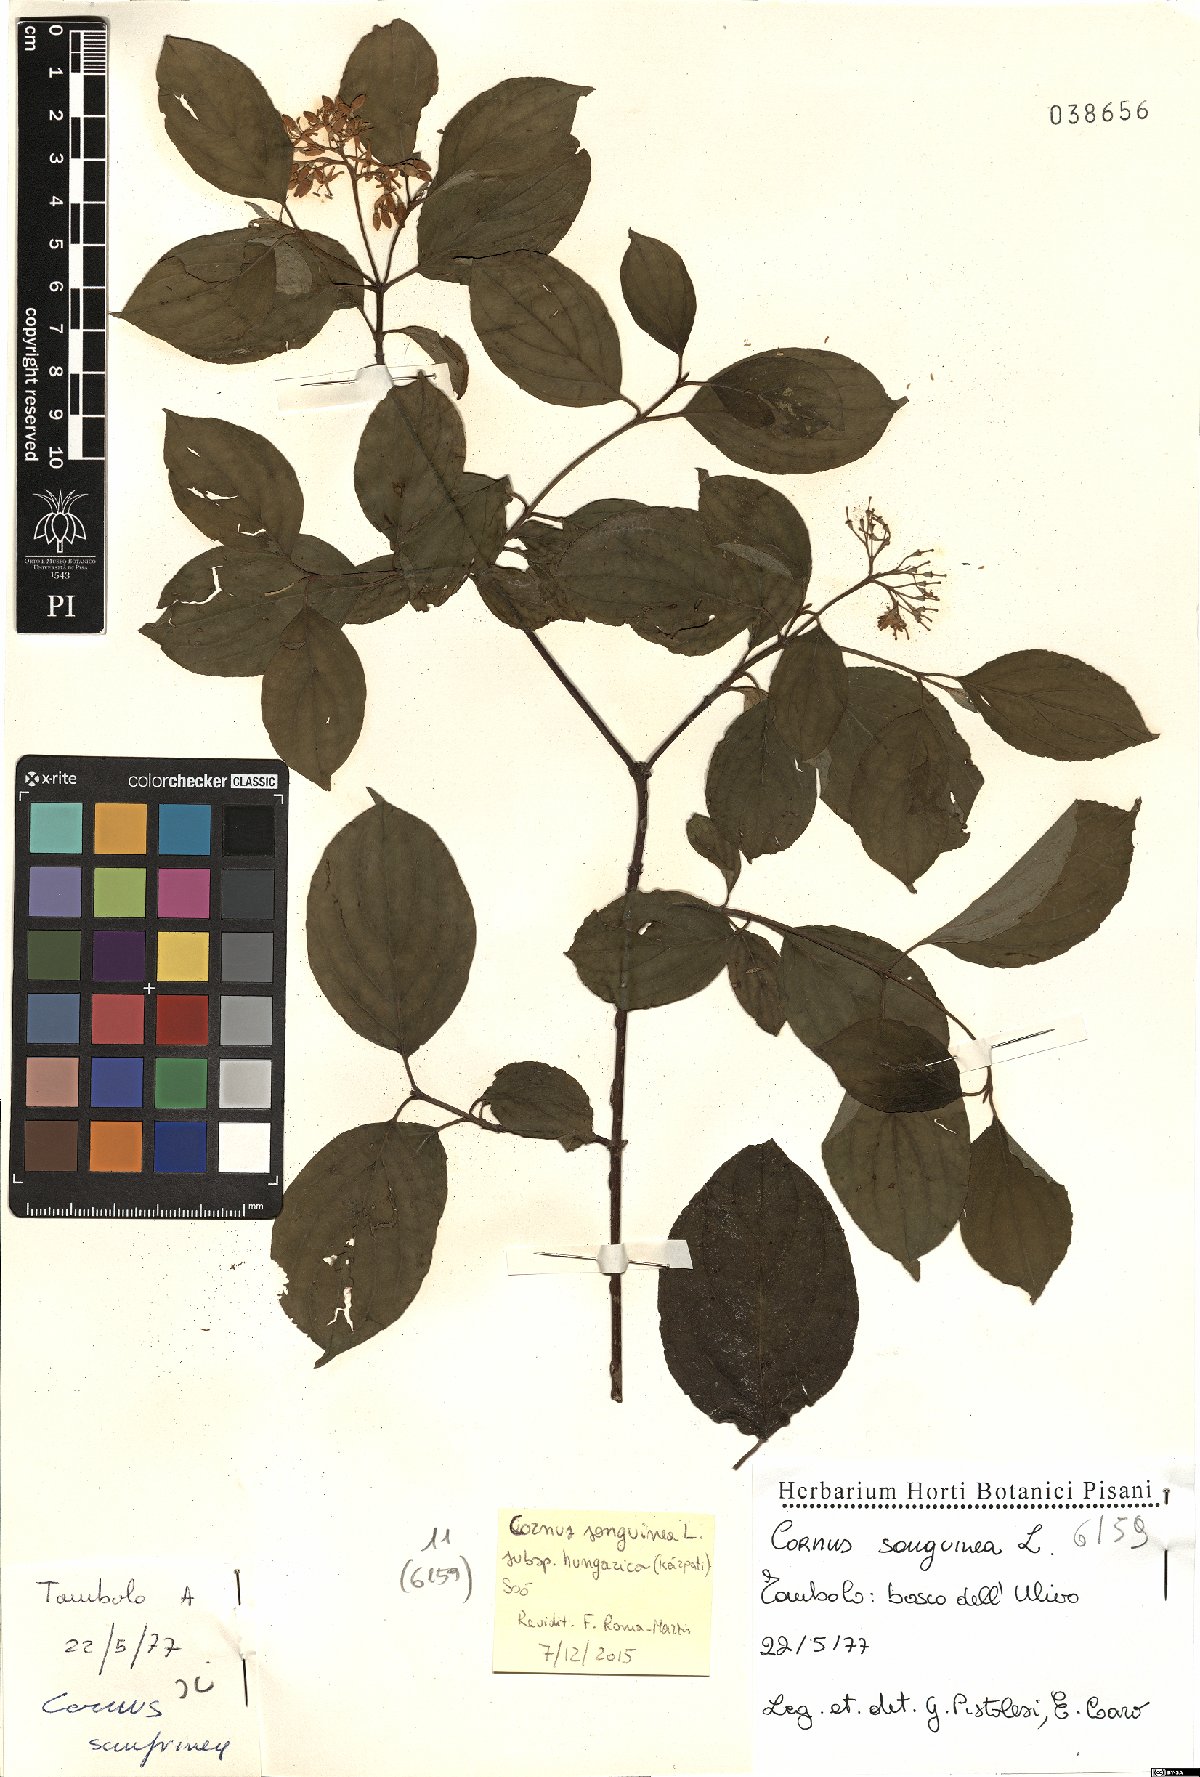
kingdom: Plantae
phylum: Tracheophyta
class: Magnoliopsida
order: Cornales
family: Cornaceae
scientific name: Cornaceae
